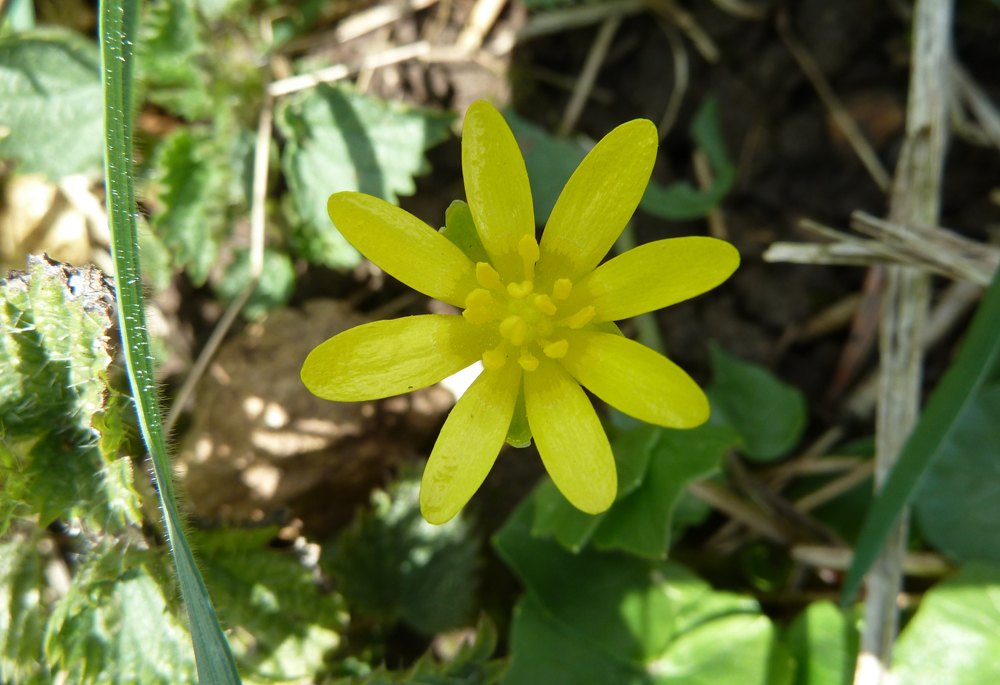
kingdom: Plantae
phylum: Tracheophyta
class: Magnoliopsida
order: Ranunculales
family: Ranunculaceae
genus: Ficaria
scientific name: Ficaria verna
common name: Lesser celandine
